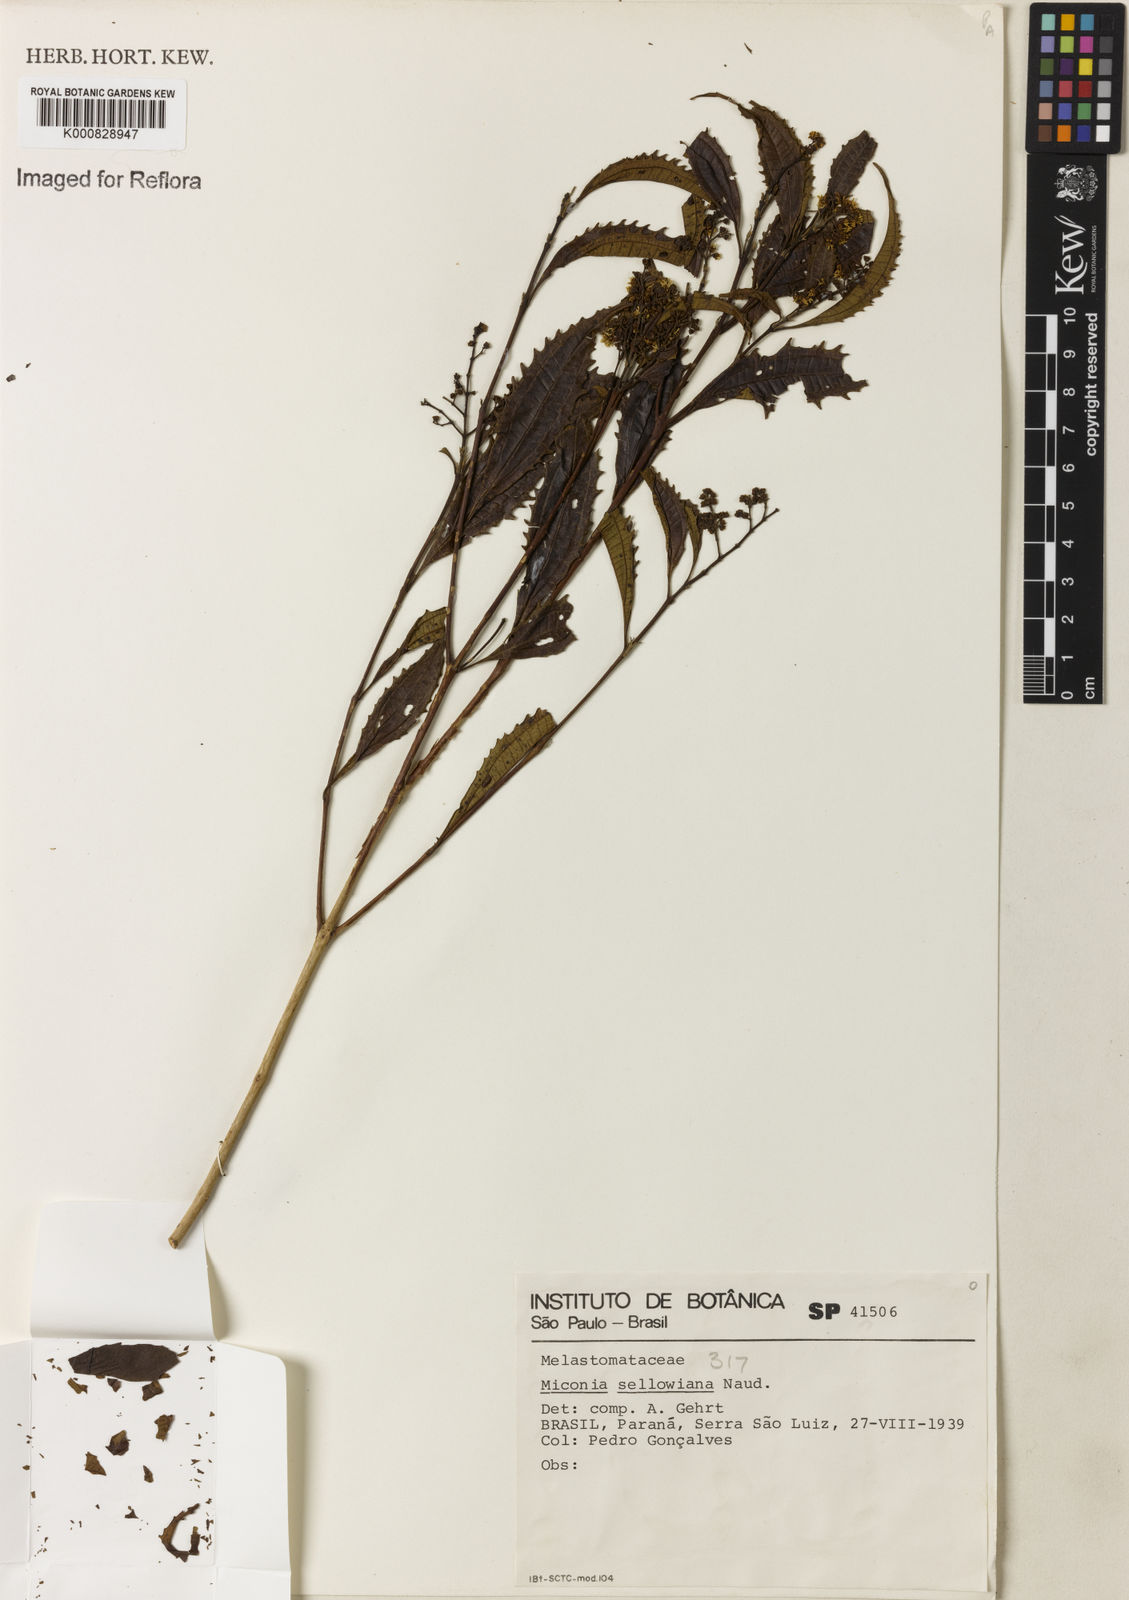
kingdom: Plantae
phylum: Tracheophyta
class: Magnoliopsida
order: Myrtales
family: Melastomataceae
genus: Miconia
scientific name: Miconia sellowiana
